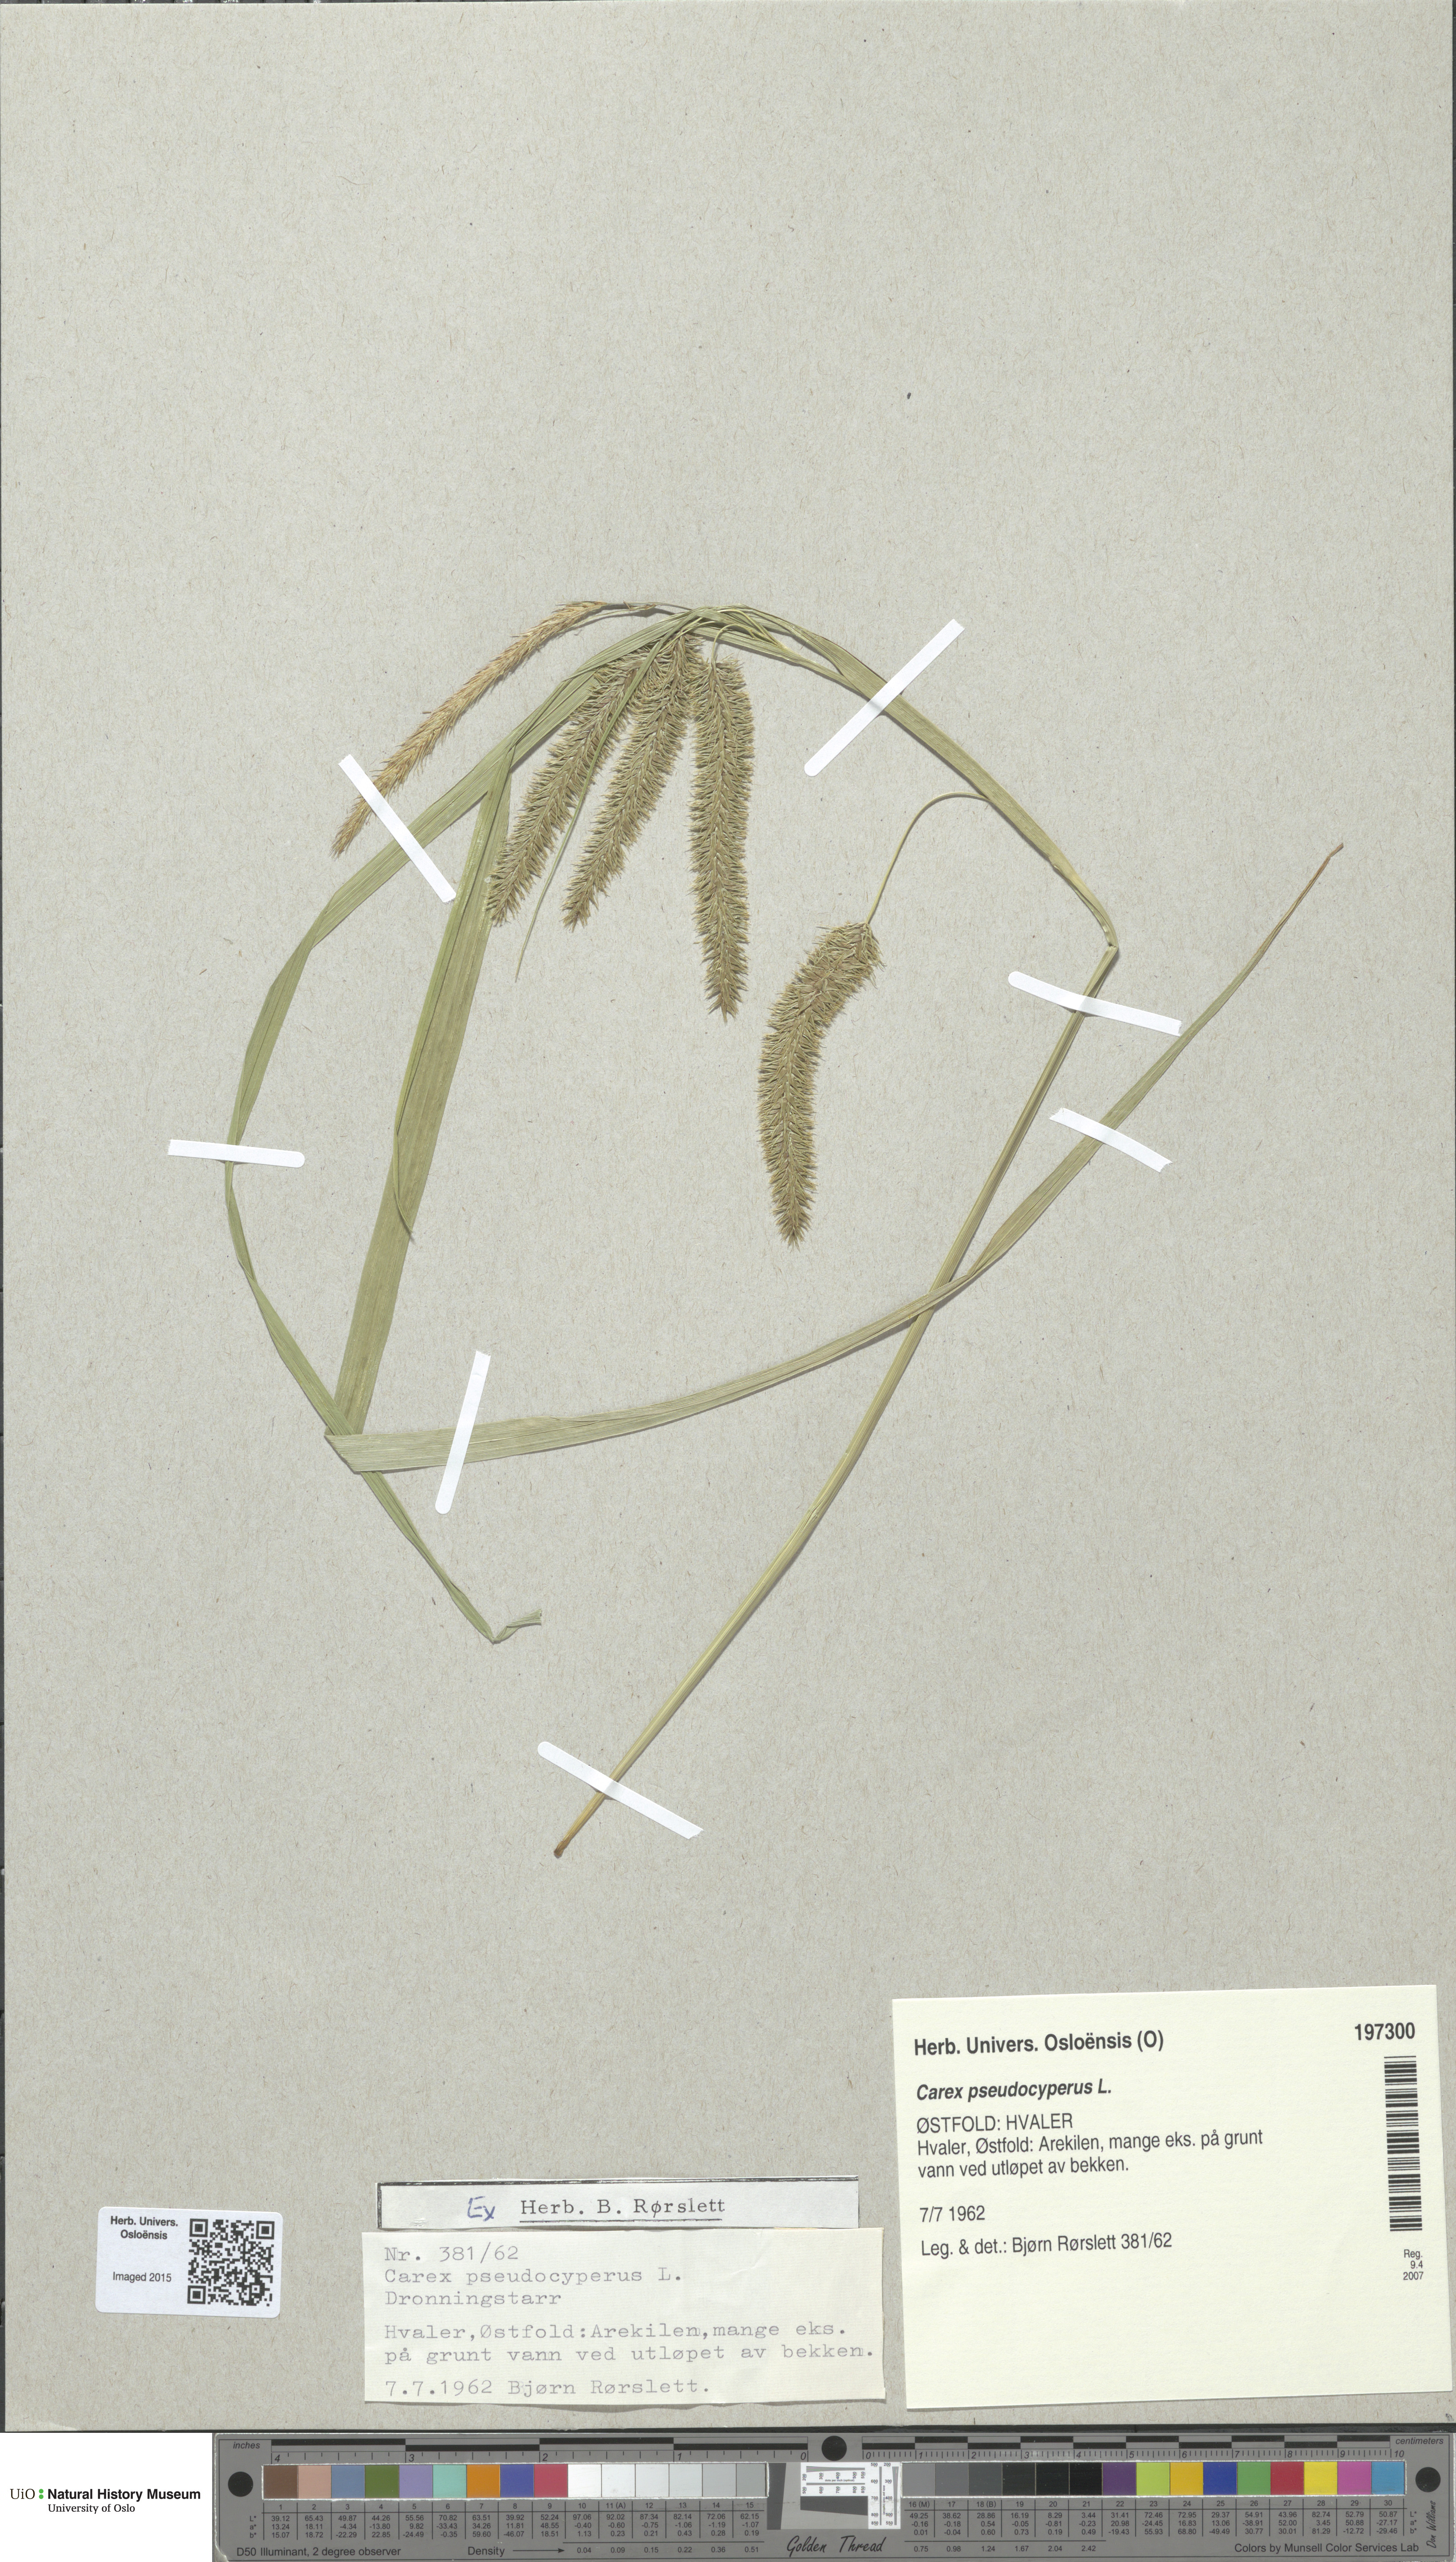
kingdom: Plantae
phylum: Tracheophyta
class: Liliopsida
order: Poales
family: Cyperaceae
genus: Carex
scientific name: Carex pseudocyperus
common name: Cyperus sedge
